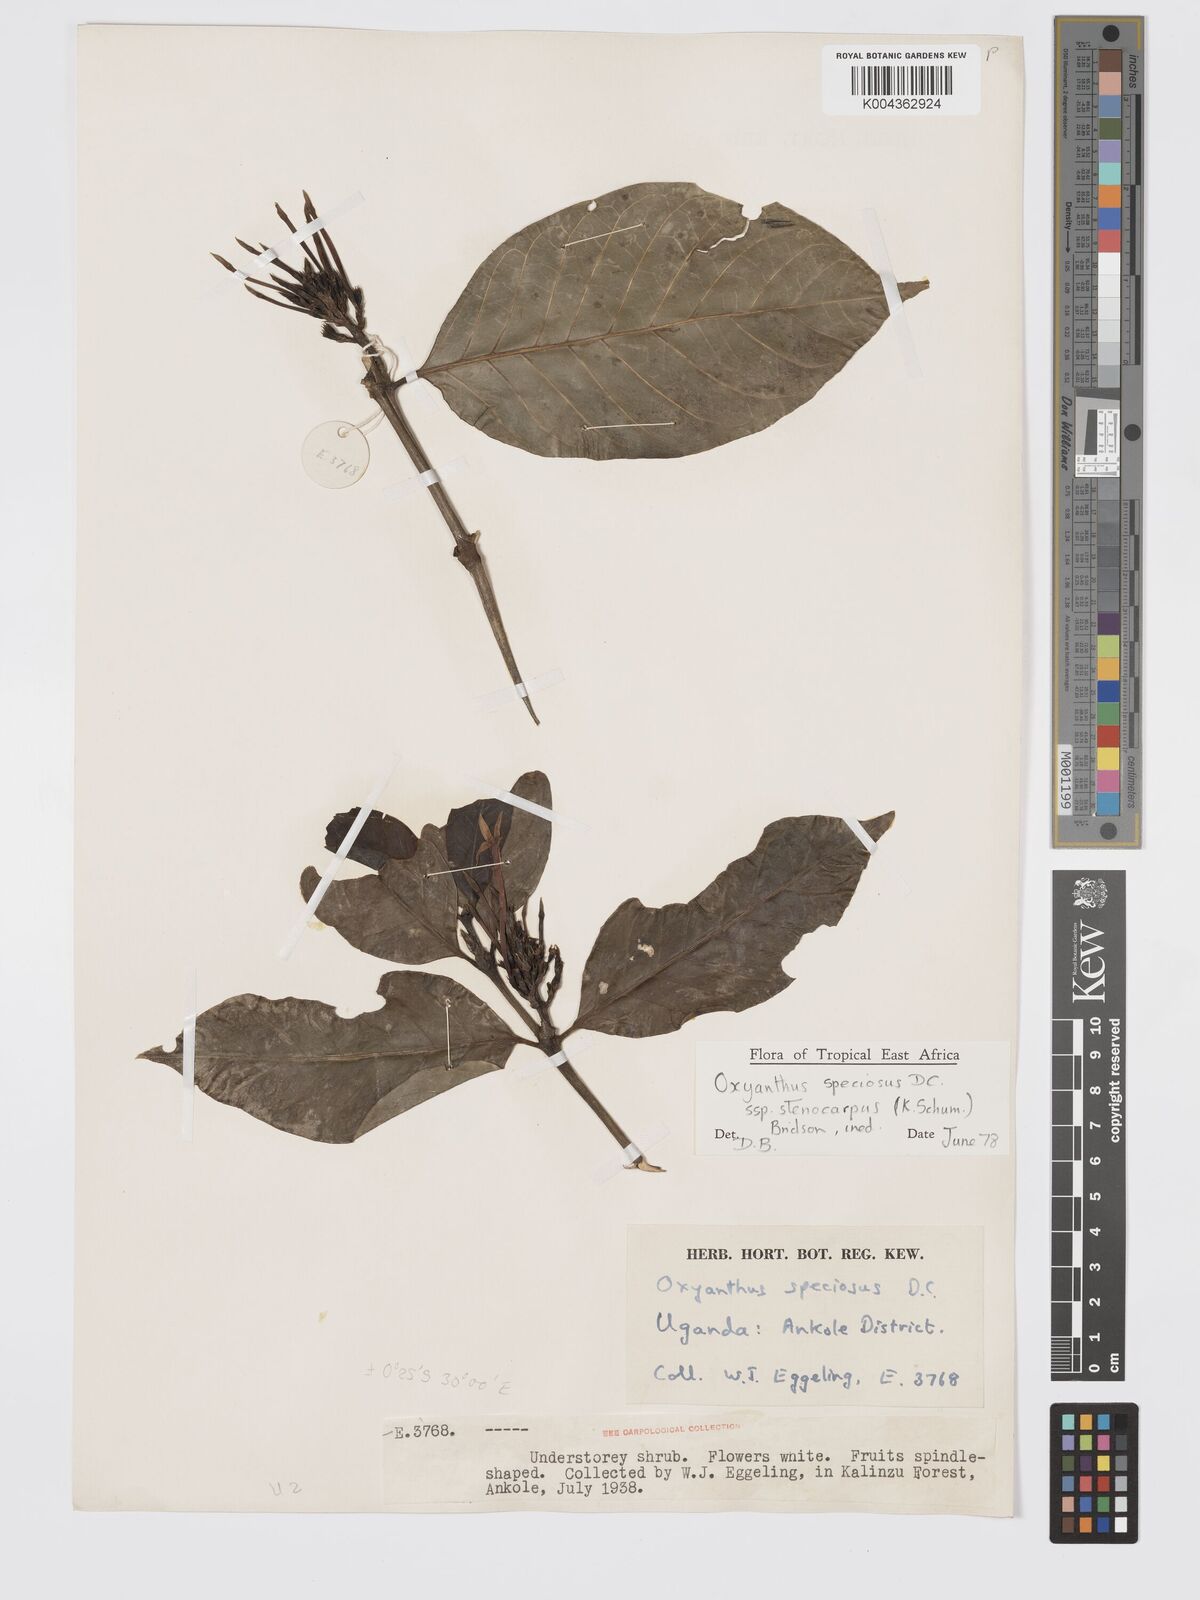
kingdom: Plantae
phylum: Tracheophyta
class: Magnoliopsida
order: Gentianales
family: Rubiaceae
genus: Oxyanthus
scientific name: Oxyanthus
